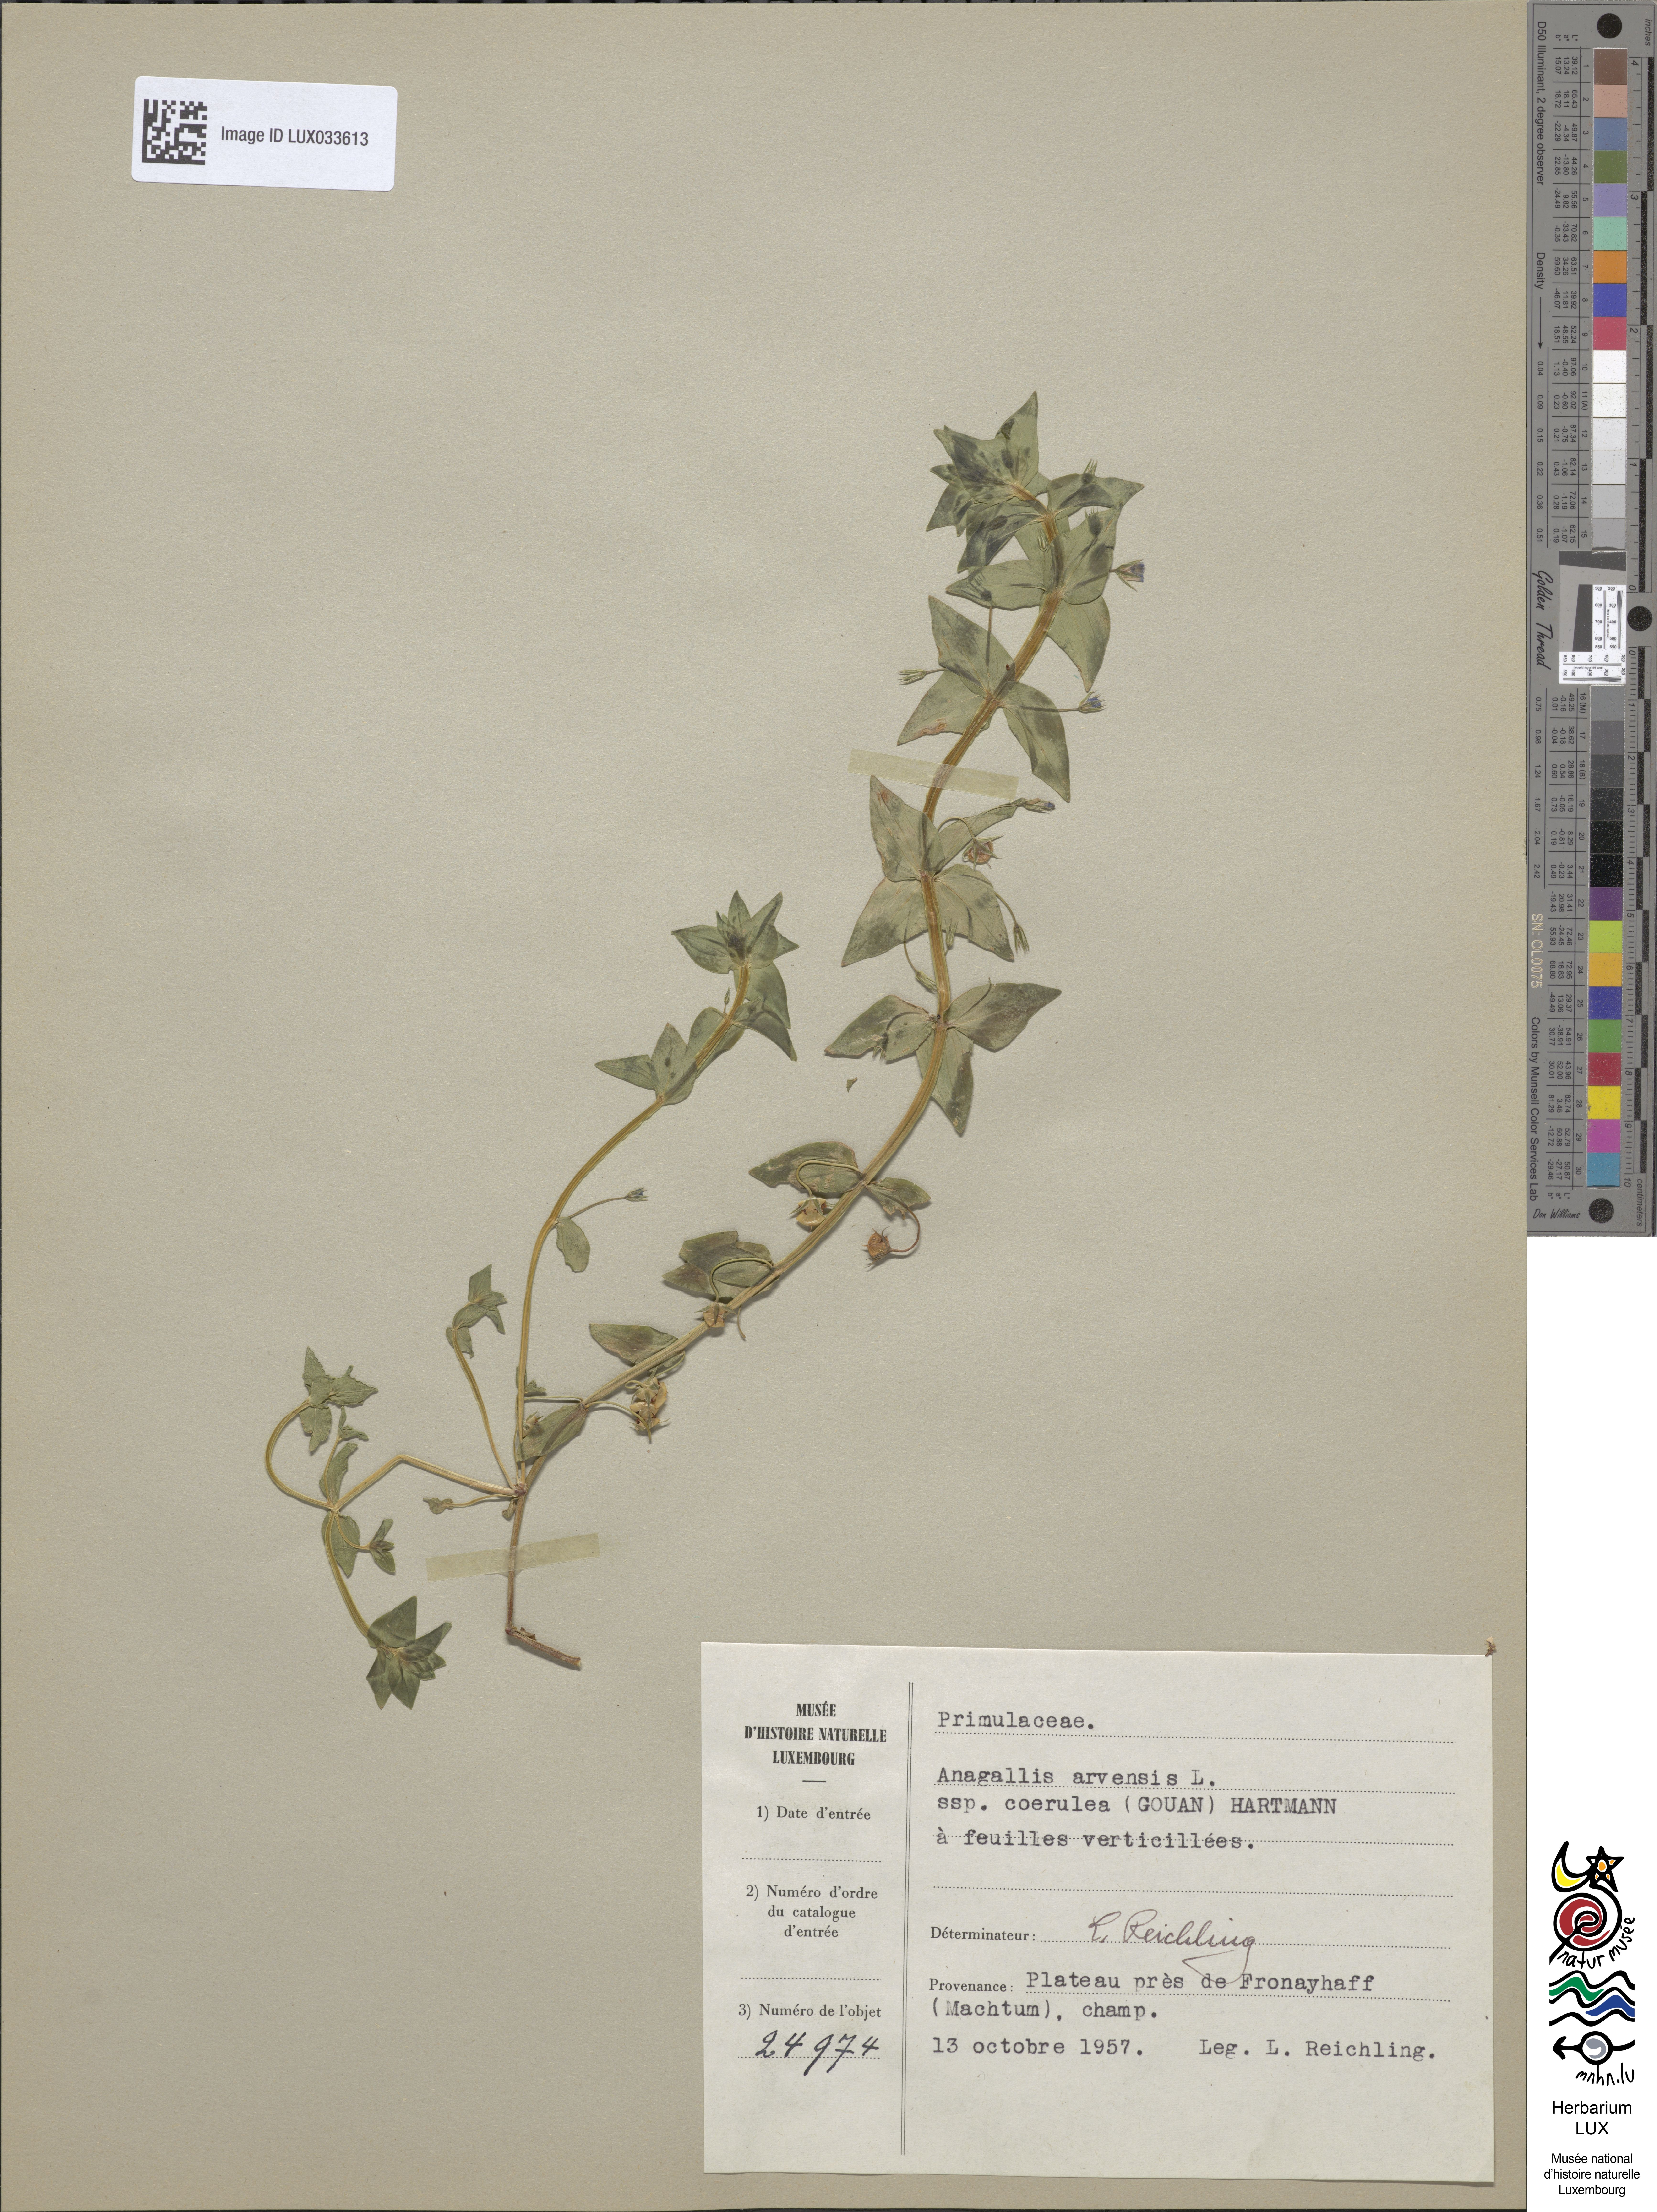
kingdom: Plantae
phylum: Tracheophyta
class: Magnoliopsida
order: Ericales
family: Primulaceae
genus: Lysimachia
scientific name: Lysimachia foemina
